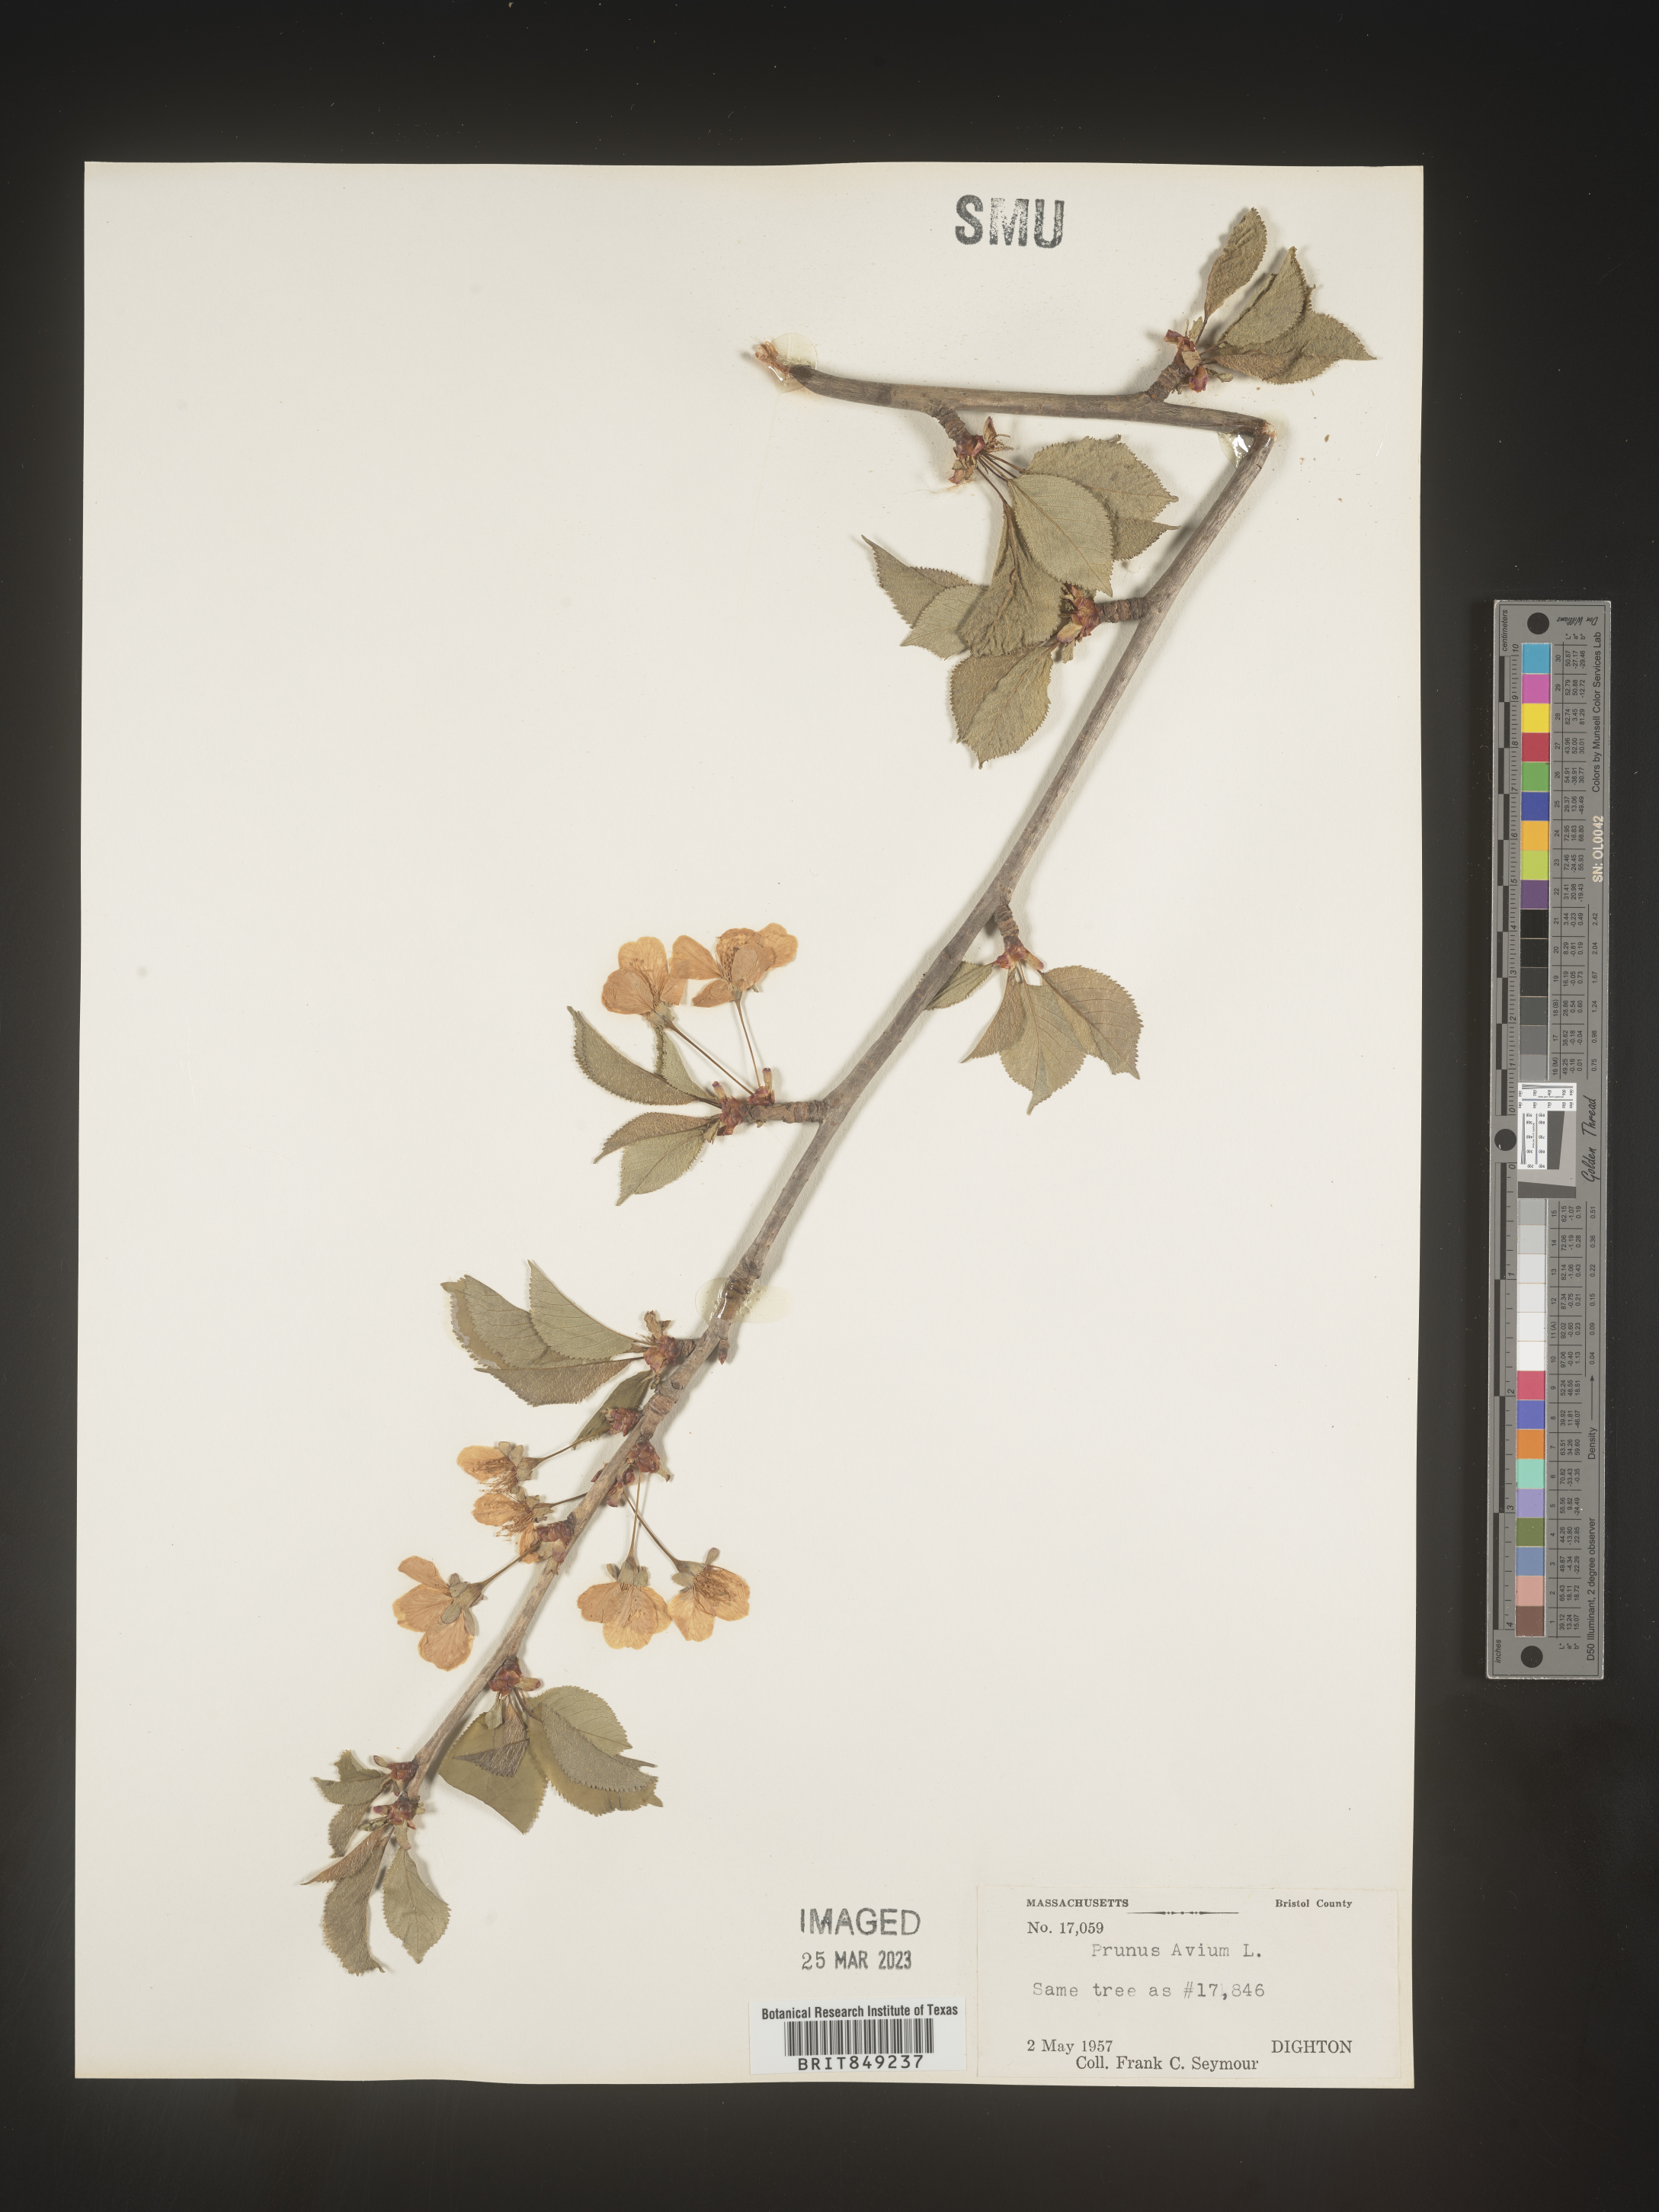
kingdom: Plantae
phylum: Tracheophyta
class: Magnoliopsida
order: Rosales
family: Rosaceae
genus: Prunus
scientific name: Prunus
